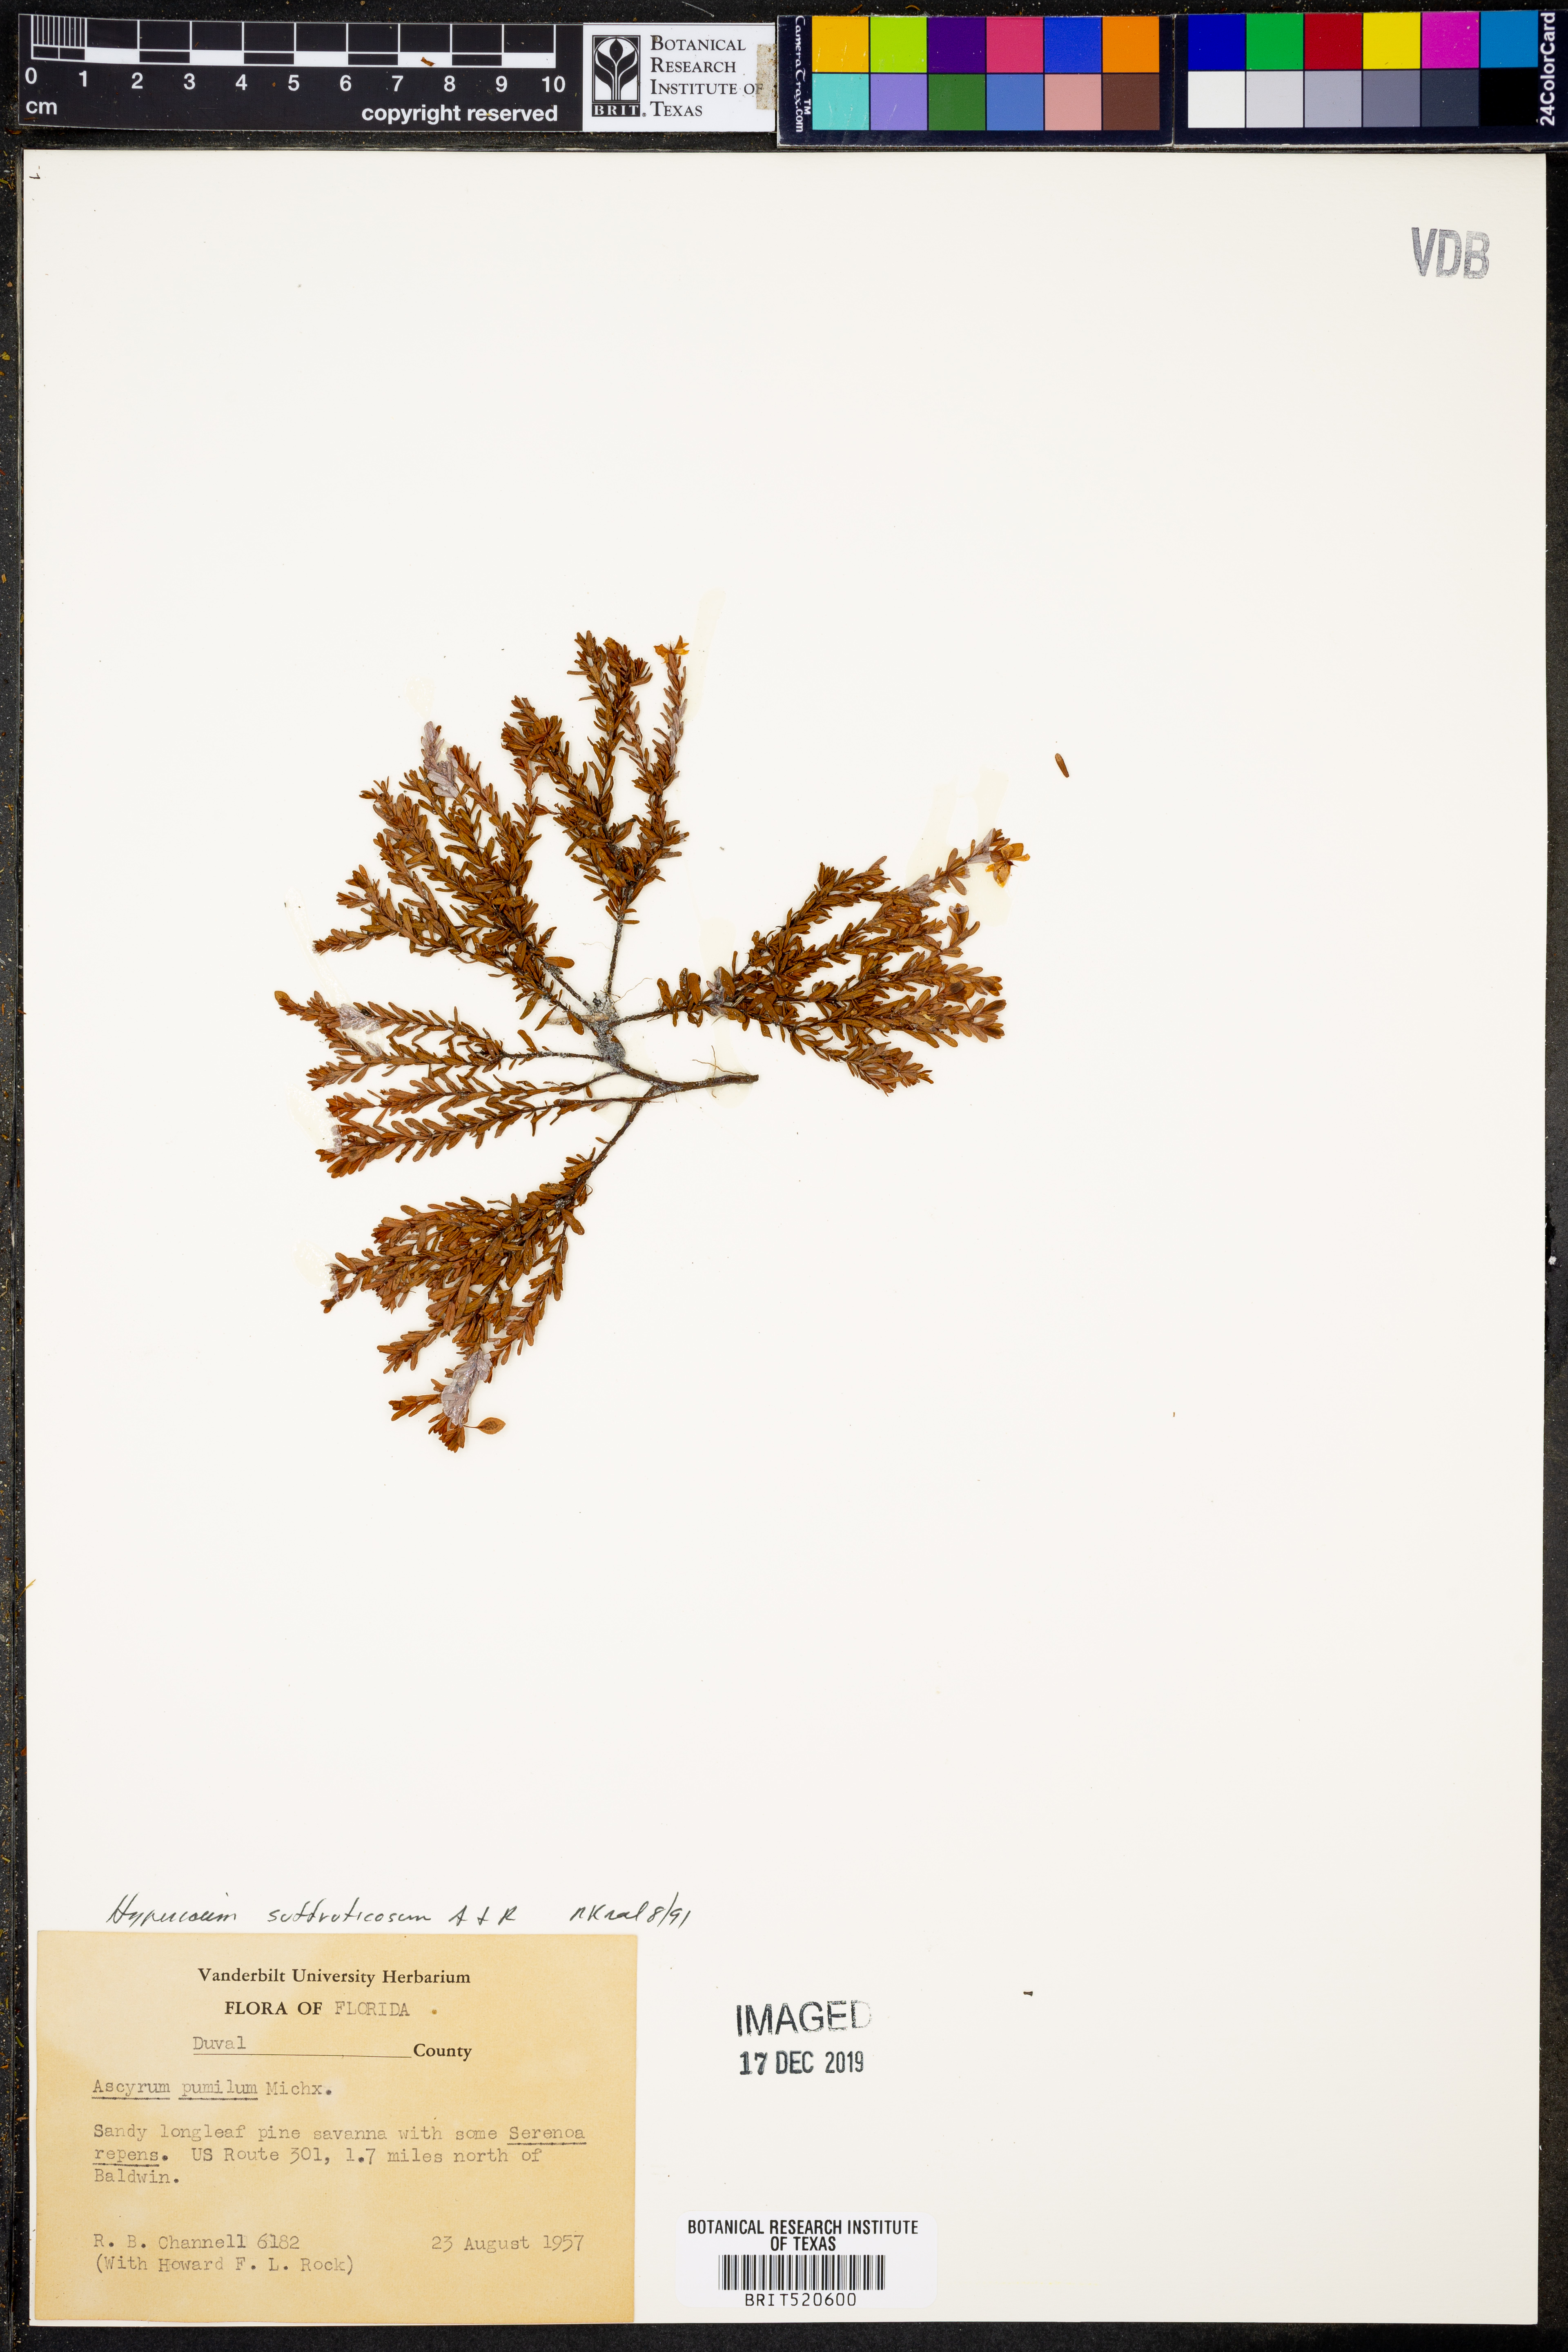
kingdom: Plantae
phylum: Tracheophyta
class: Magnoliopsida
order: Malpighiales
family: Hypericaceae
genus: Hypericum
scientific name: Hypericum suffruticosum
